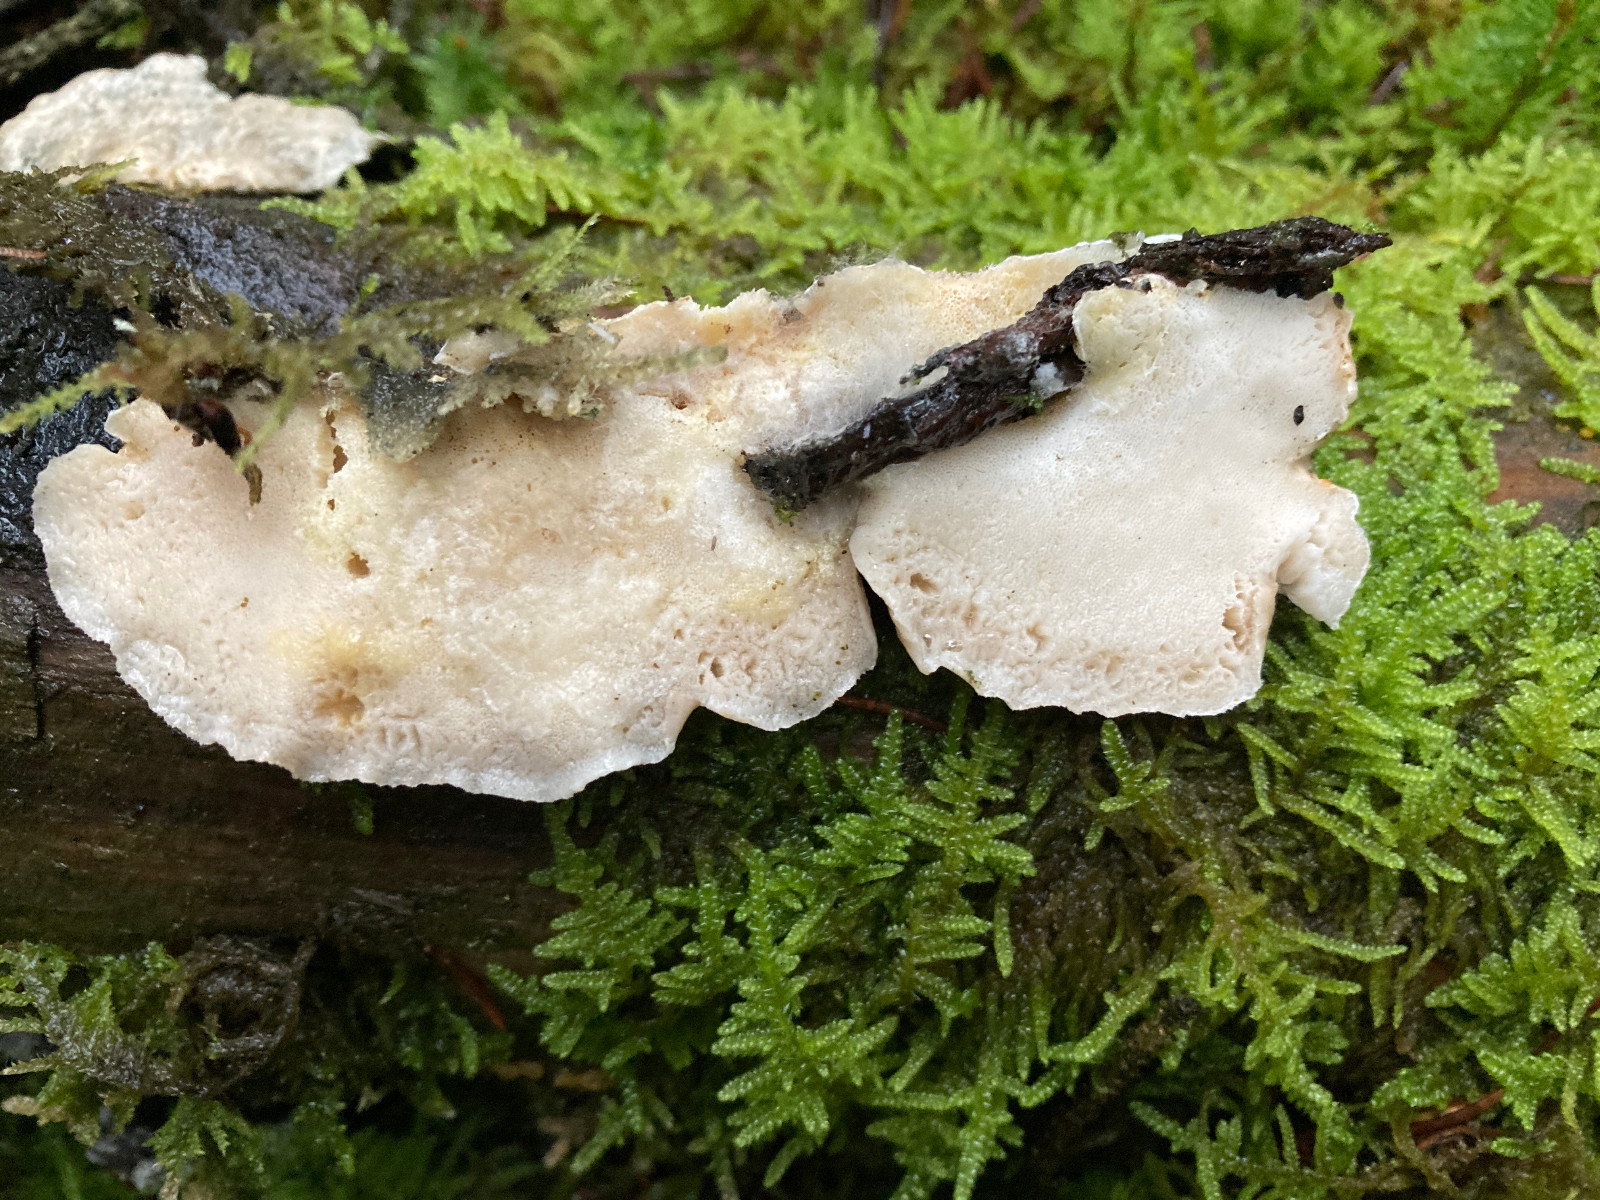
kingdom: Fungi
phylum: Basidiomycota
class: Agaricomycetes
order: Polyporales
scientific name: Polyporales
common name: poresvampordenen
